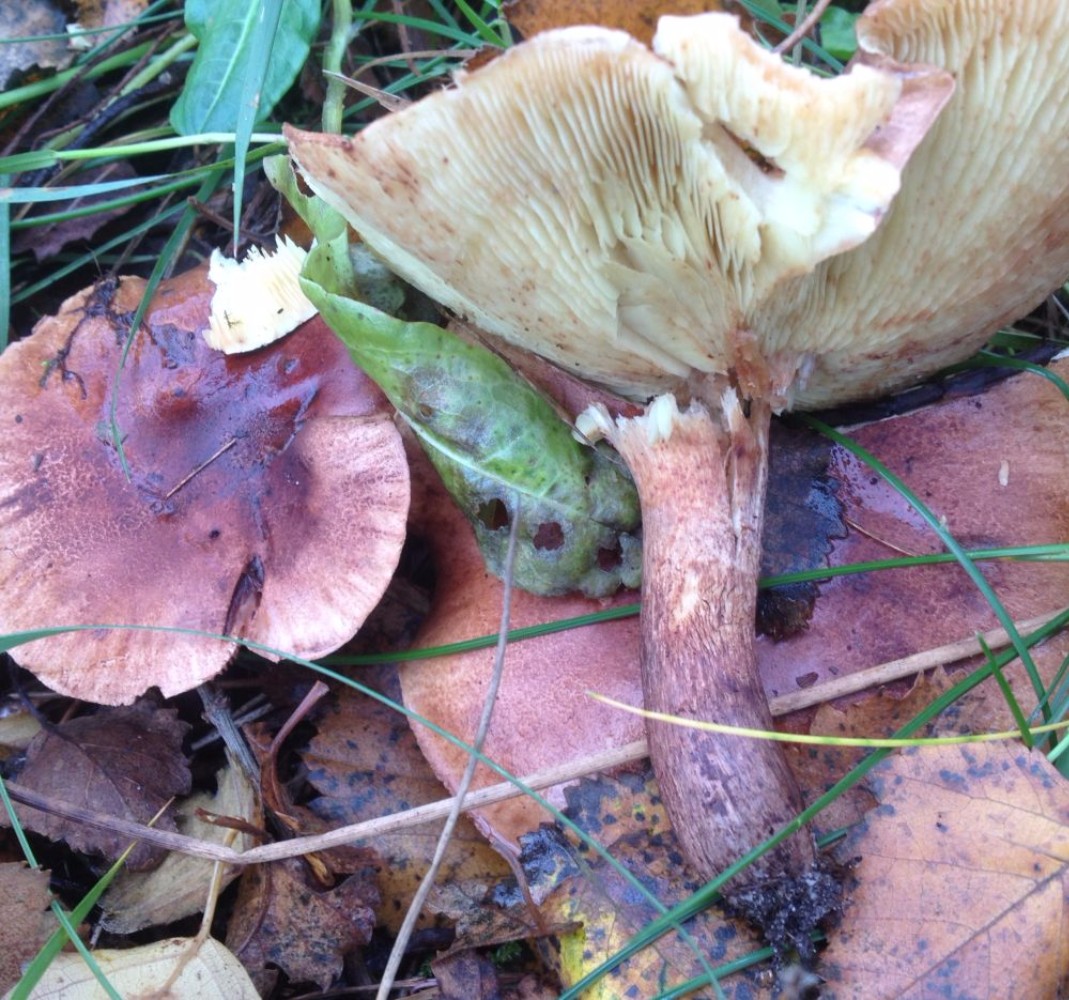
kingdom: Fungi
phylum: Basidiomycota
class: Agaricomycetes
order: Agaricales
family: Tricholomataceae
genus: Tricholoma
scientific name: Tricholoma fulvum
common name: birke-ridderhat
